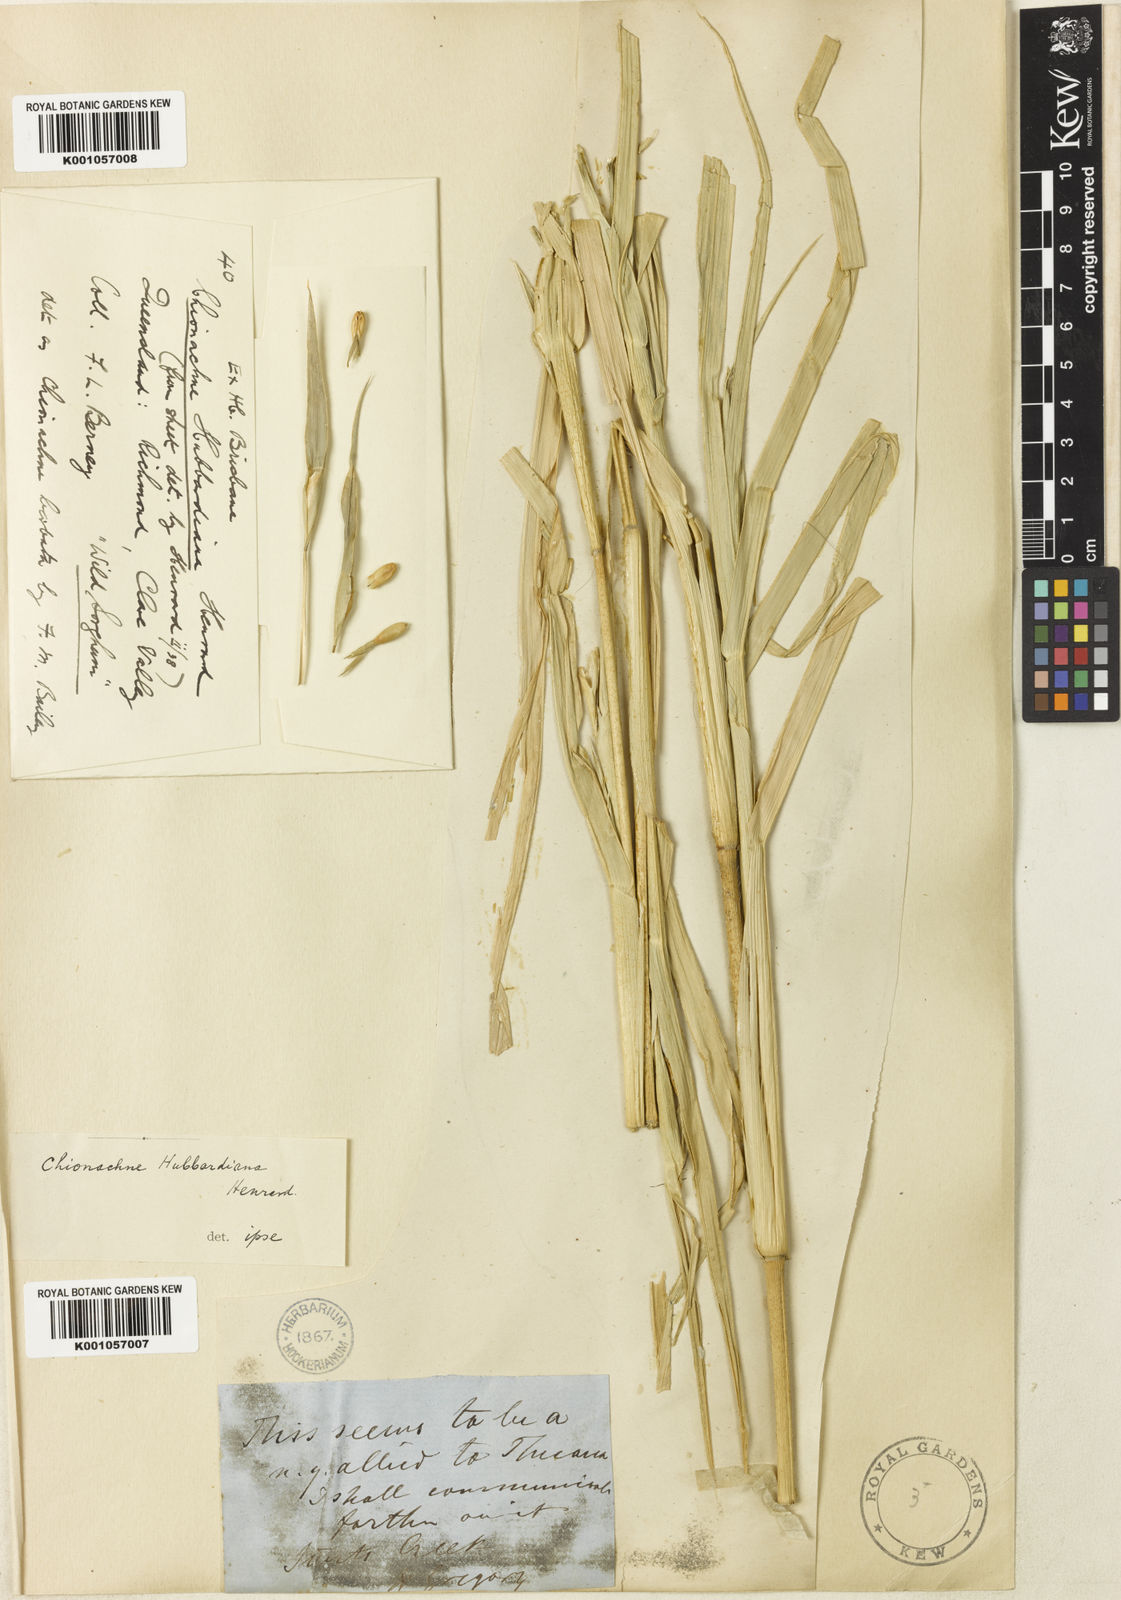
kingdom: Plantae
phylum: Tracheophyta
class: Liliopsida
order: Poales
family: Poaceae
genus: Polytoca
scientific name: Polytoca hubbardiana
